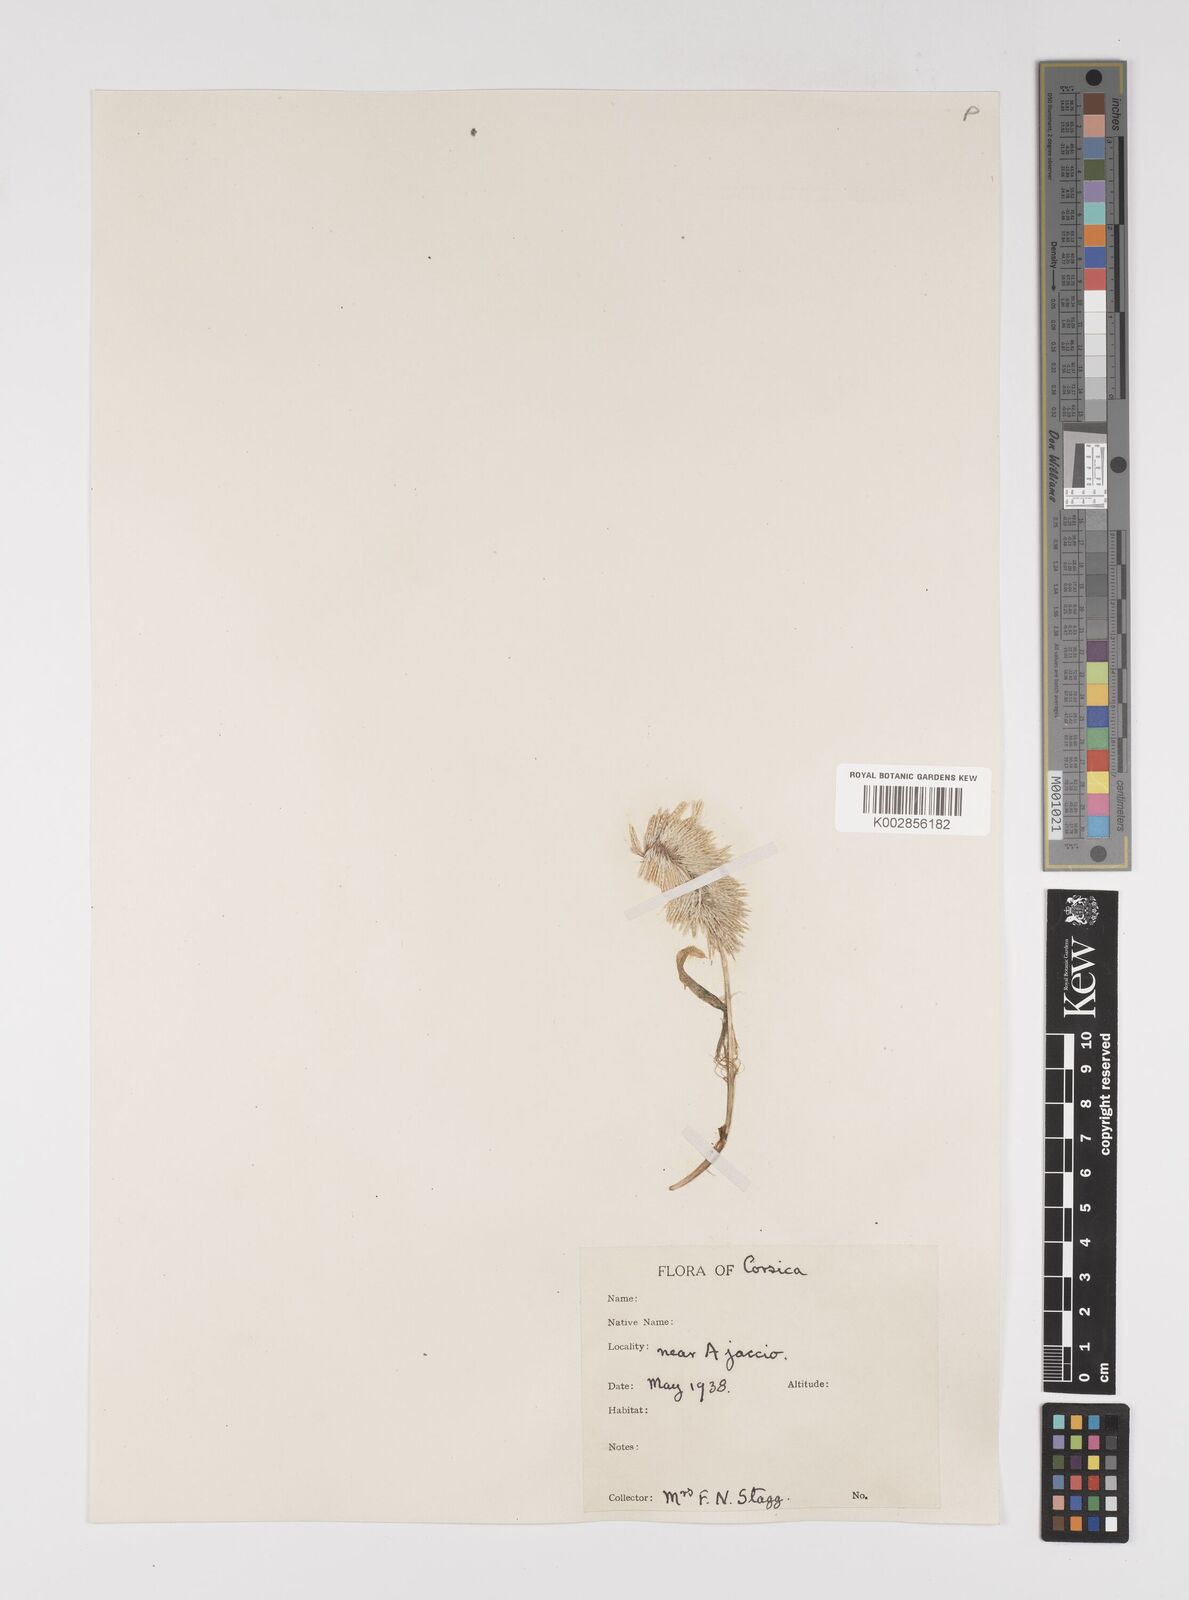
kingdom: Plantae
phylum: Tracheophyta
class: Liliopsida
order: Poales
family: Poaceae
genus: Lamarckia
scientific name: Lamarckia aurea
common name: Golden dog's-tail
